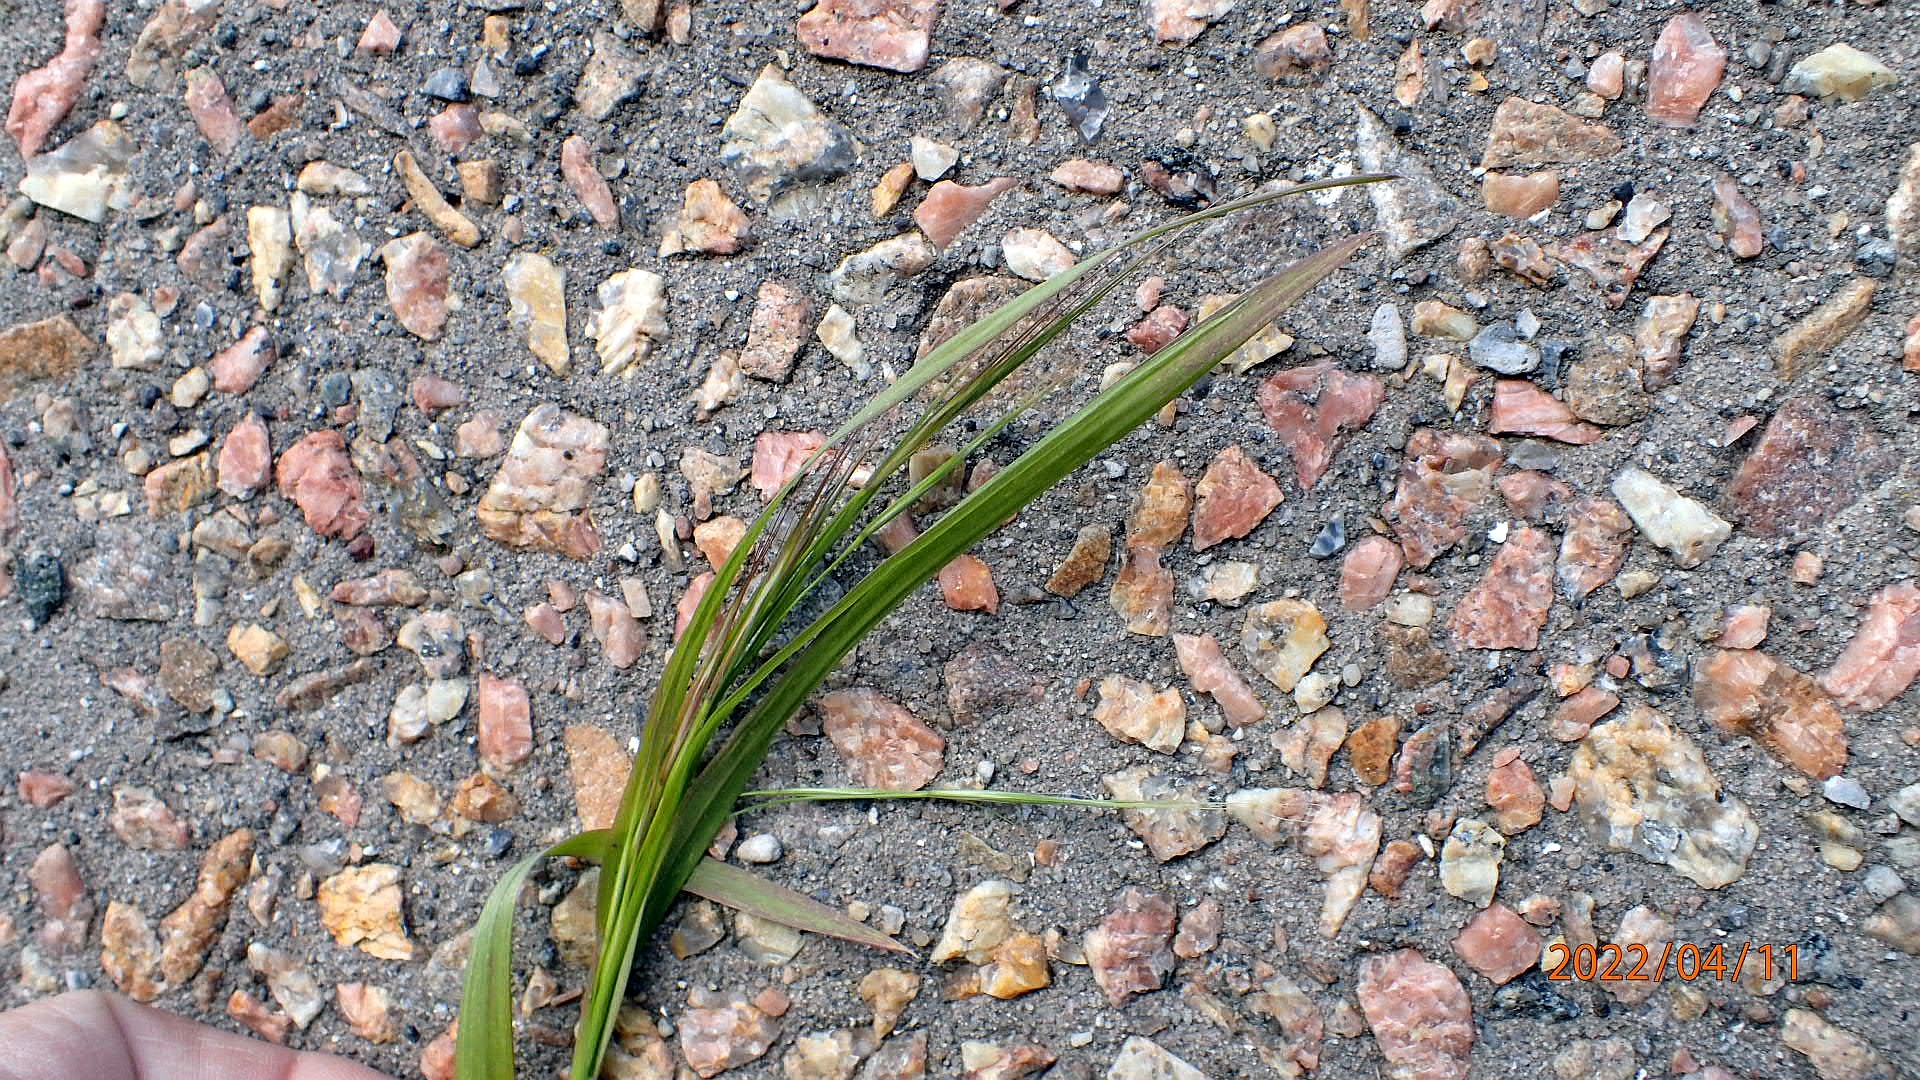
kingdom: Plantae
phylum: Tracheophyta
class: Liliopsida
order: Poales
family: Poaceae
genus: Bromus
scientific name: Bromus sterilis
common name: Gold hejre
